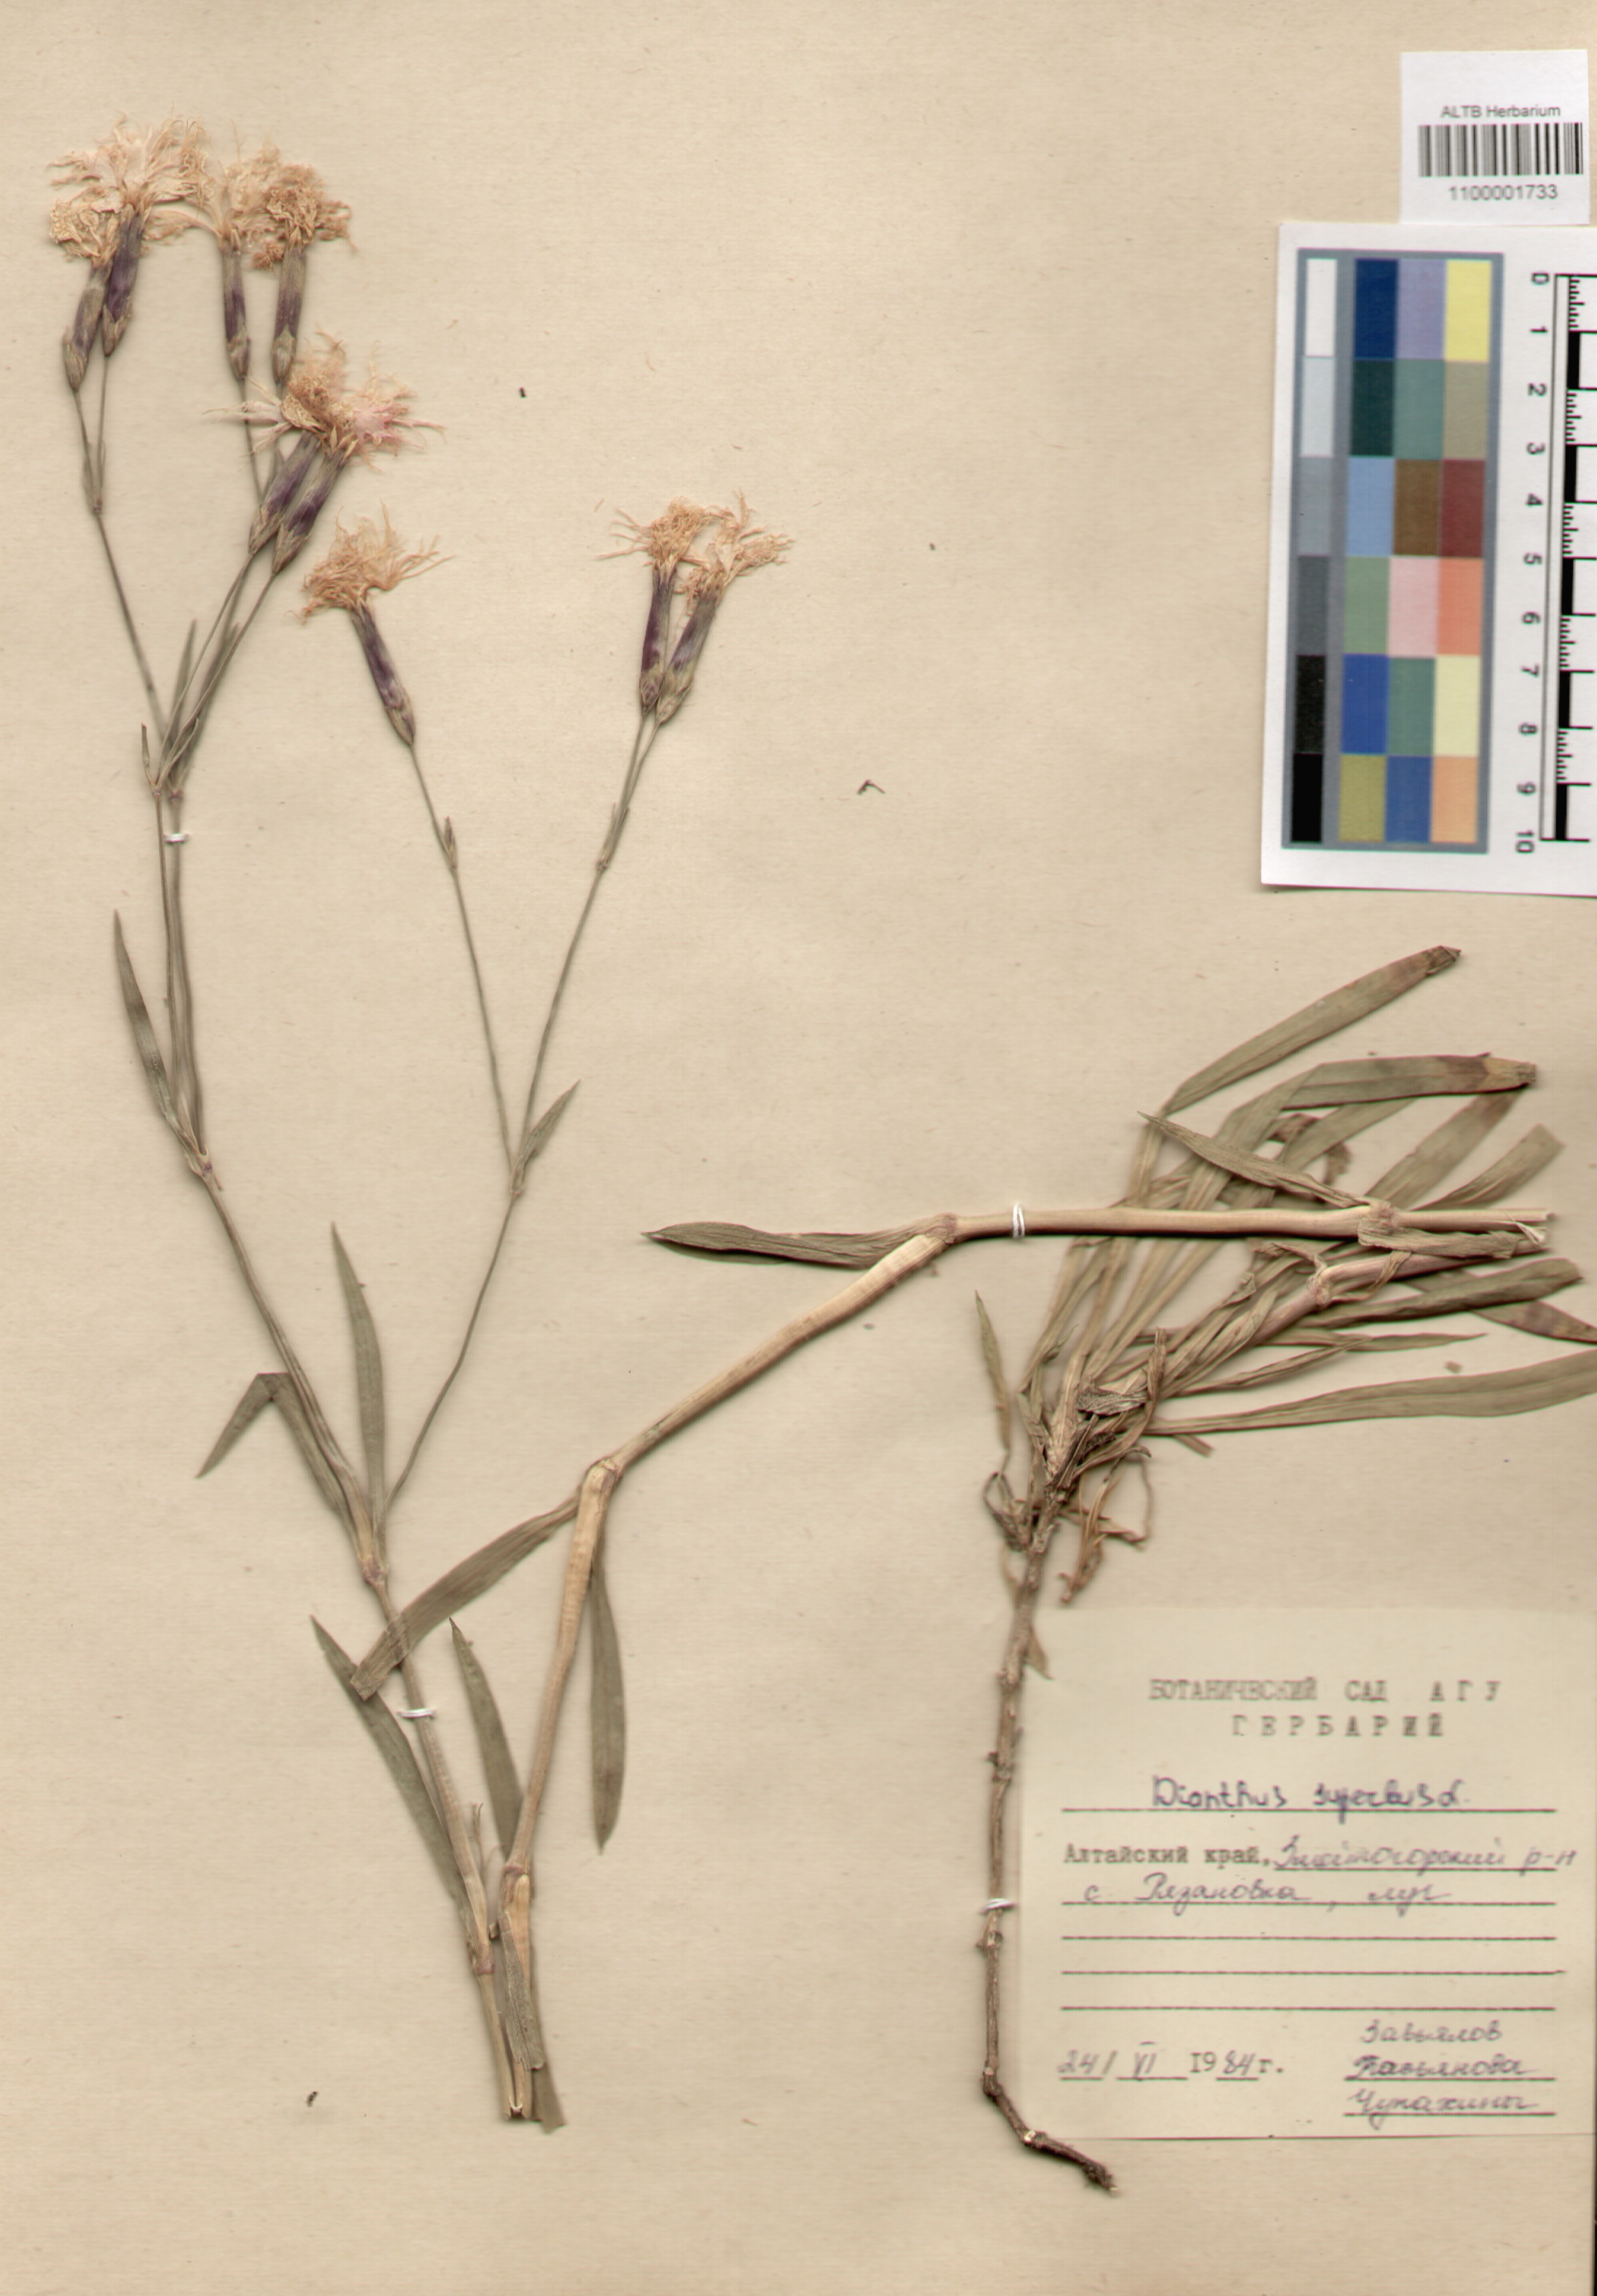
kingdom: Plantae
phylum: Tracheophyta
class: Magnoliopsida
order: Caryophyllales
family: Caryophyllaceae
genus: Dianthus
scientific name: Dianthus superbus
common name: Fringed pink
